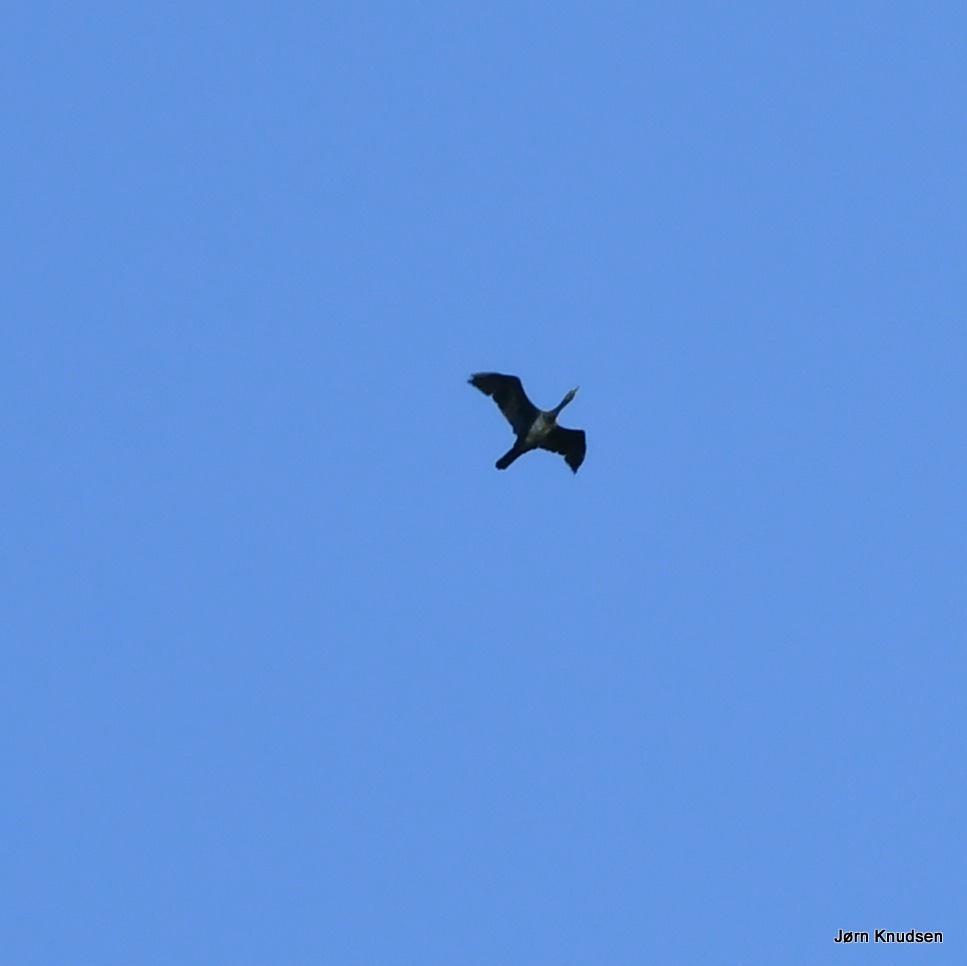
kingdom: Animalia
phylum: Chordata
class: Aves
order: Suliformes
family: Phalacrocoracidae
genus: Phalacrocorax
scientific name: Phalacrocorax carbo
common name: Skarv
